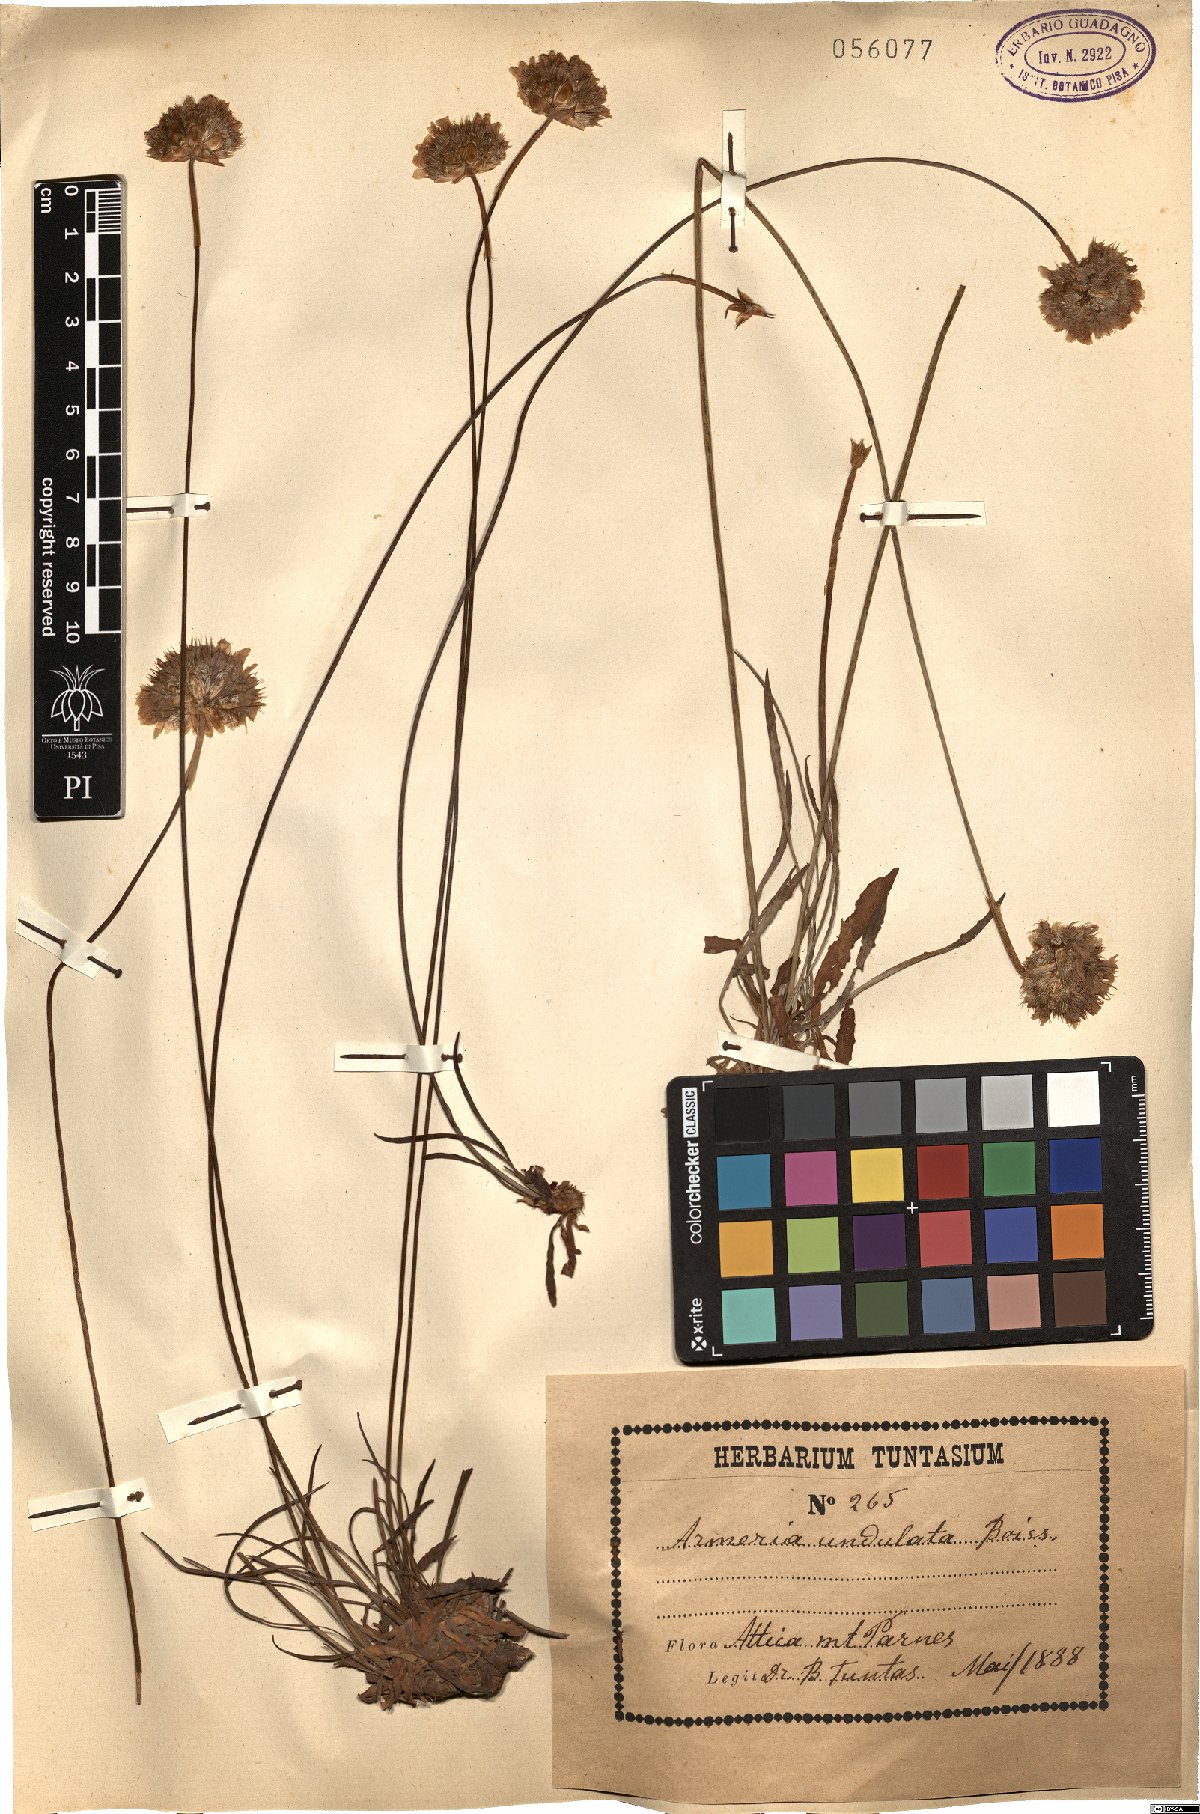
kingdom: Plantae
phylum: Tracheophyta
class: Magnoliopsida
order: Caryophyllales
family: Plumbaginaceae
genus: Armeria
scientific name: Armeria undulata
